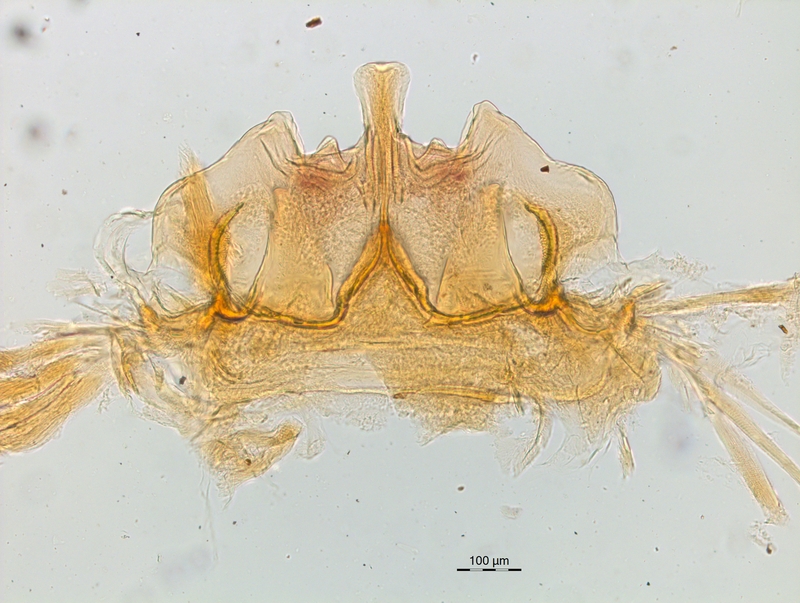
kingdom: Animalia
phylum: Arthropoda
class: Diplopoda
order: Chordeumatida
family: Craspedosomatidae
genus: Craspedosoma
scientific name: Craspedosoma rawlinsii
